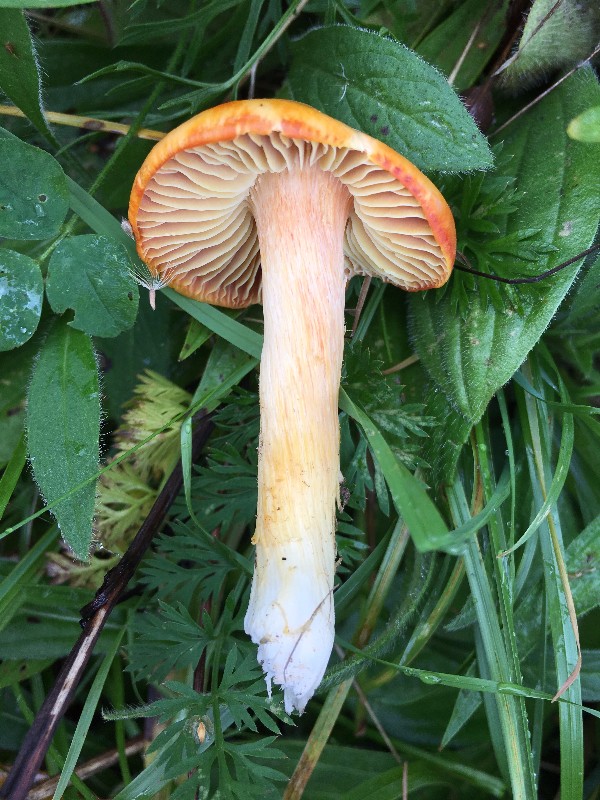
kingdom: Fungi
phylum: Basidiomycota
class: Agaricomycetes
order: Agaricales
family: Hygrophoraceae
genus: Hygrocybe
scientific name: Hygrocybe punicea
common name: skarlagen-vokshat
